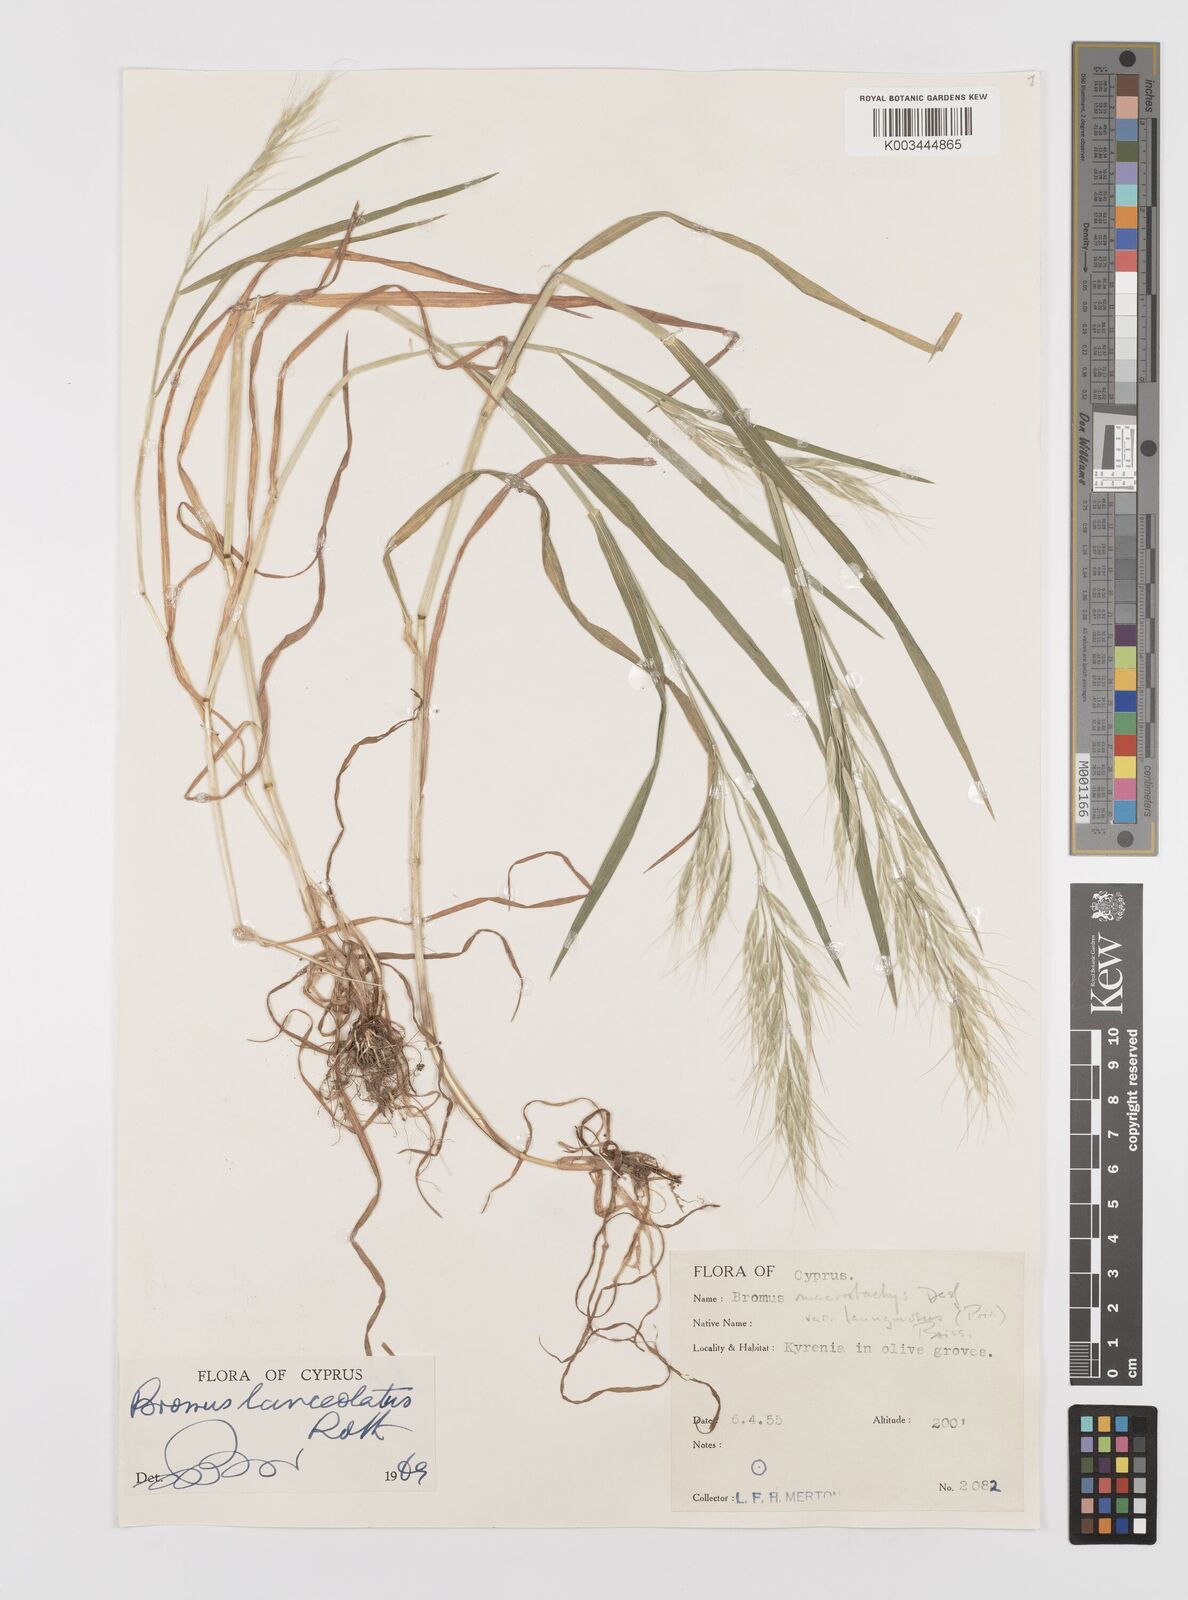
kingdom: Plantae
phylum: Tracheophyta
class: Liliopsida
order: Poales
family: Poaceae
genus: Bromus
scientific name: Bromus lanceolatus
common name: Mediterranean brome
